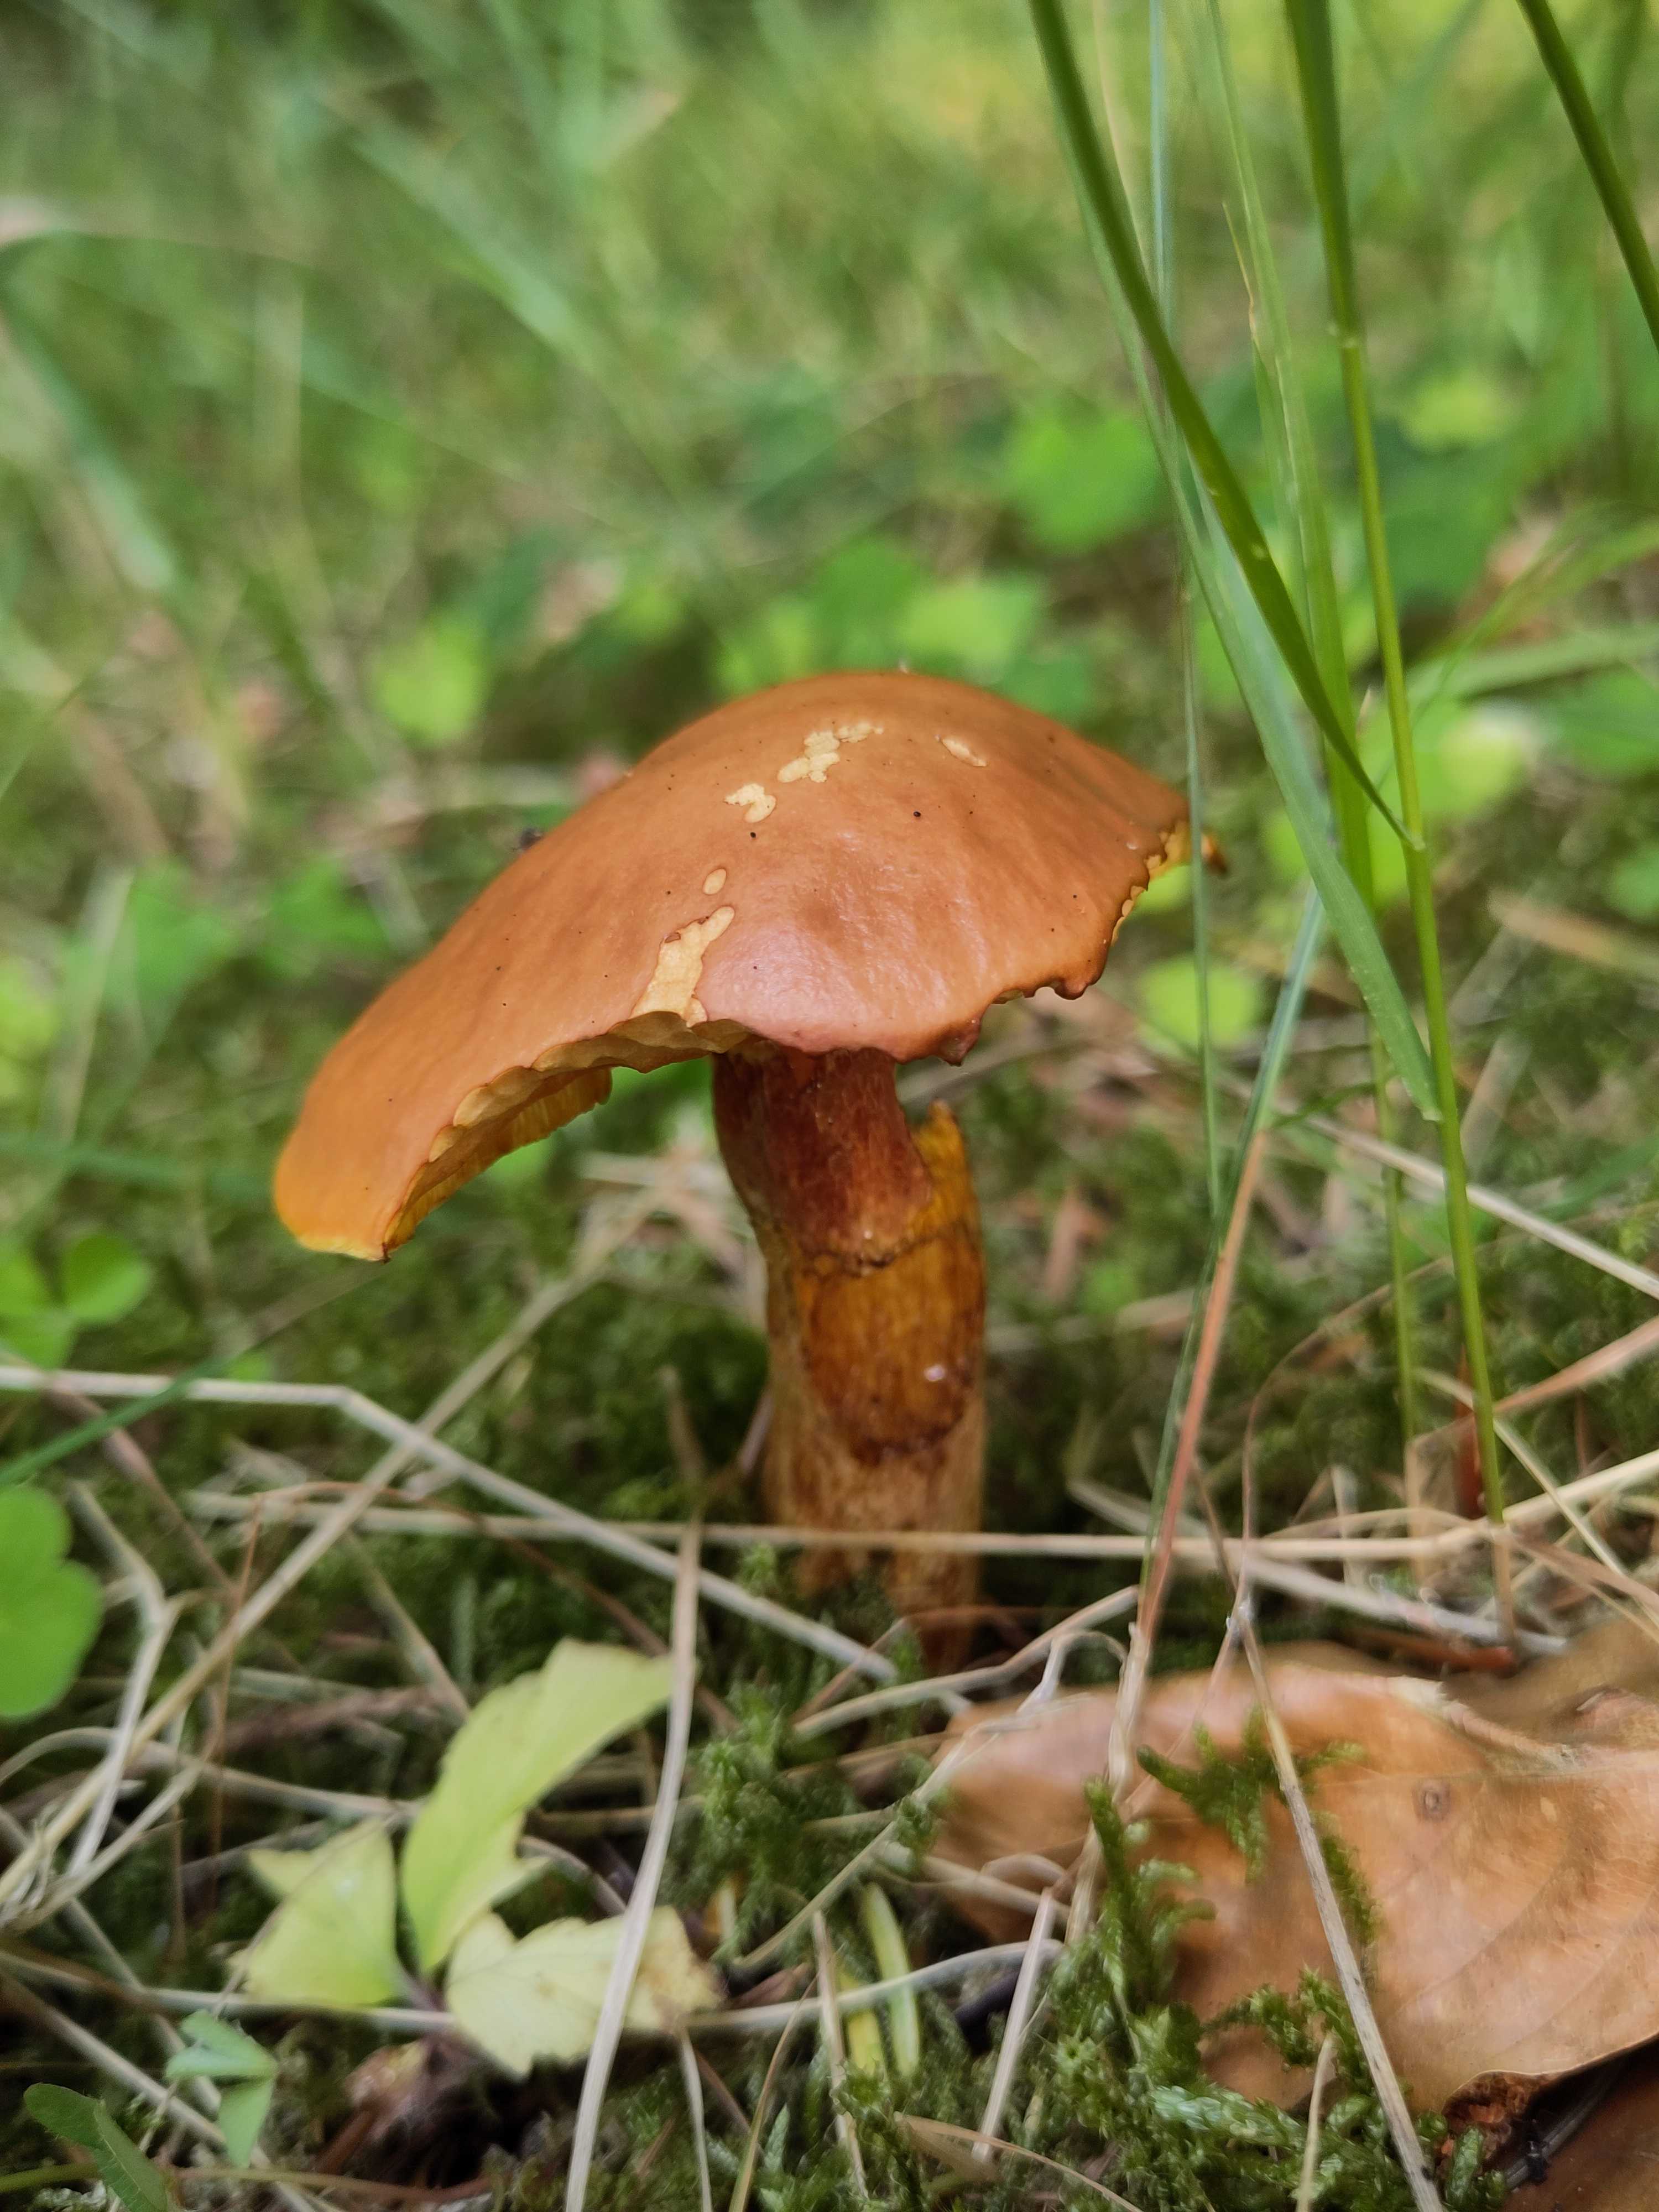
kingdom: Fungi
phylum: Basidiomycota
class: Agaricomycetes
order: Boletales
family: Suillaceae
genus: Suillus
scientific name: Suillus grevillei
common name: lærke-slimrørhat
